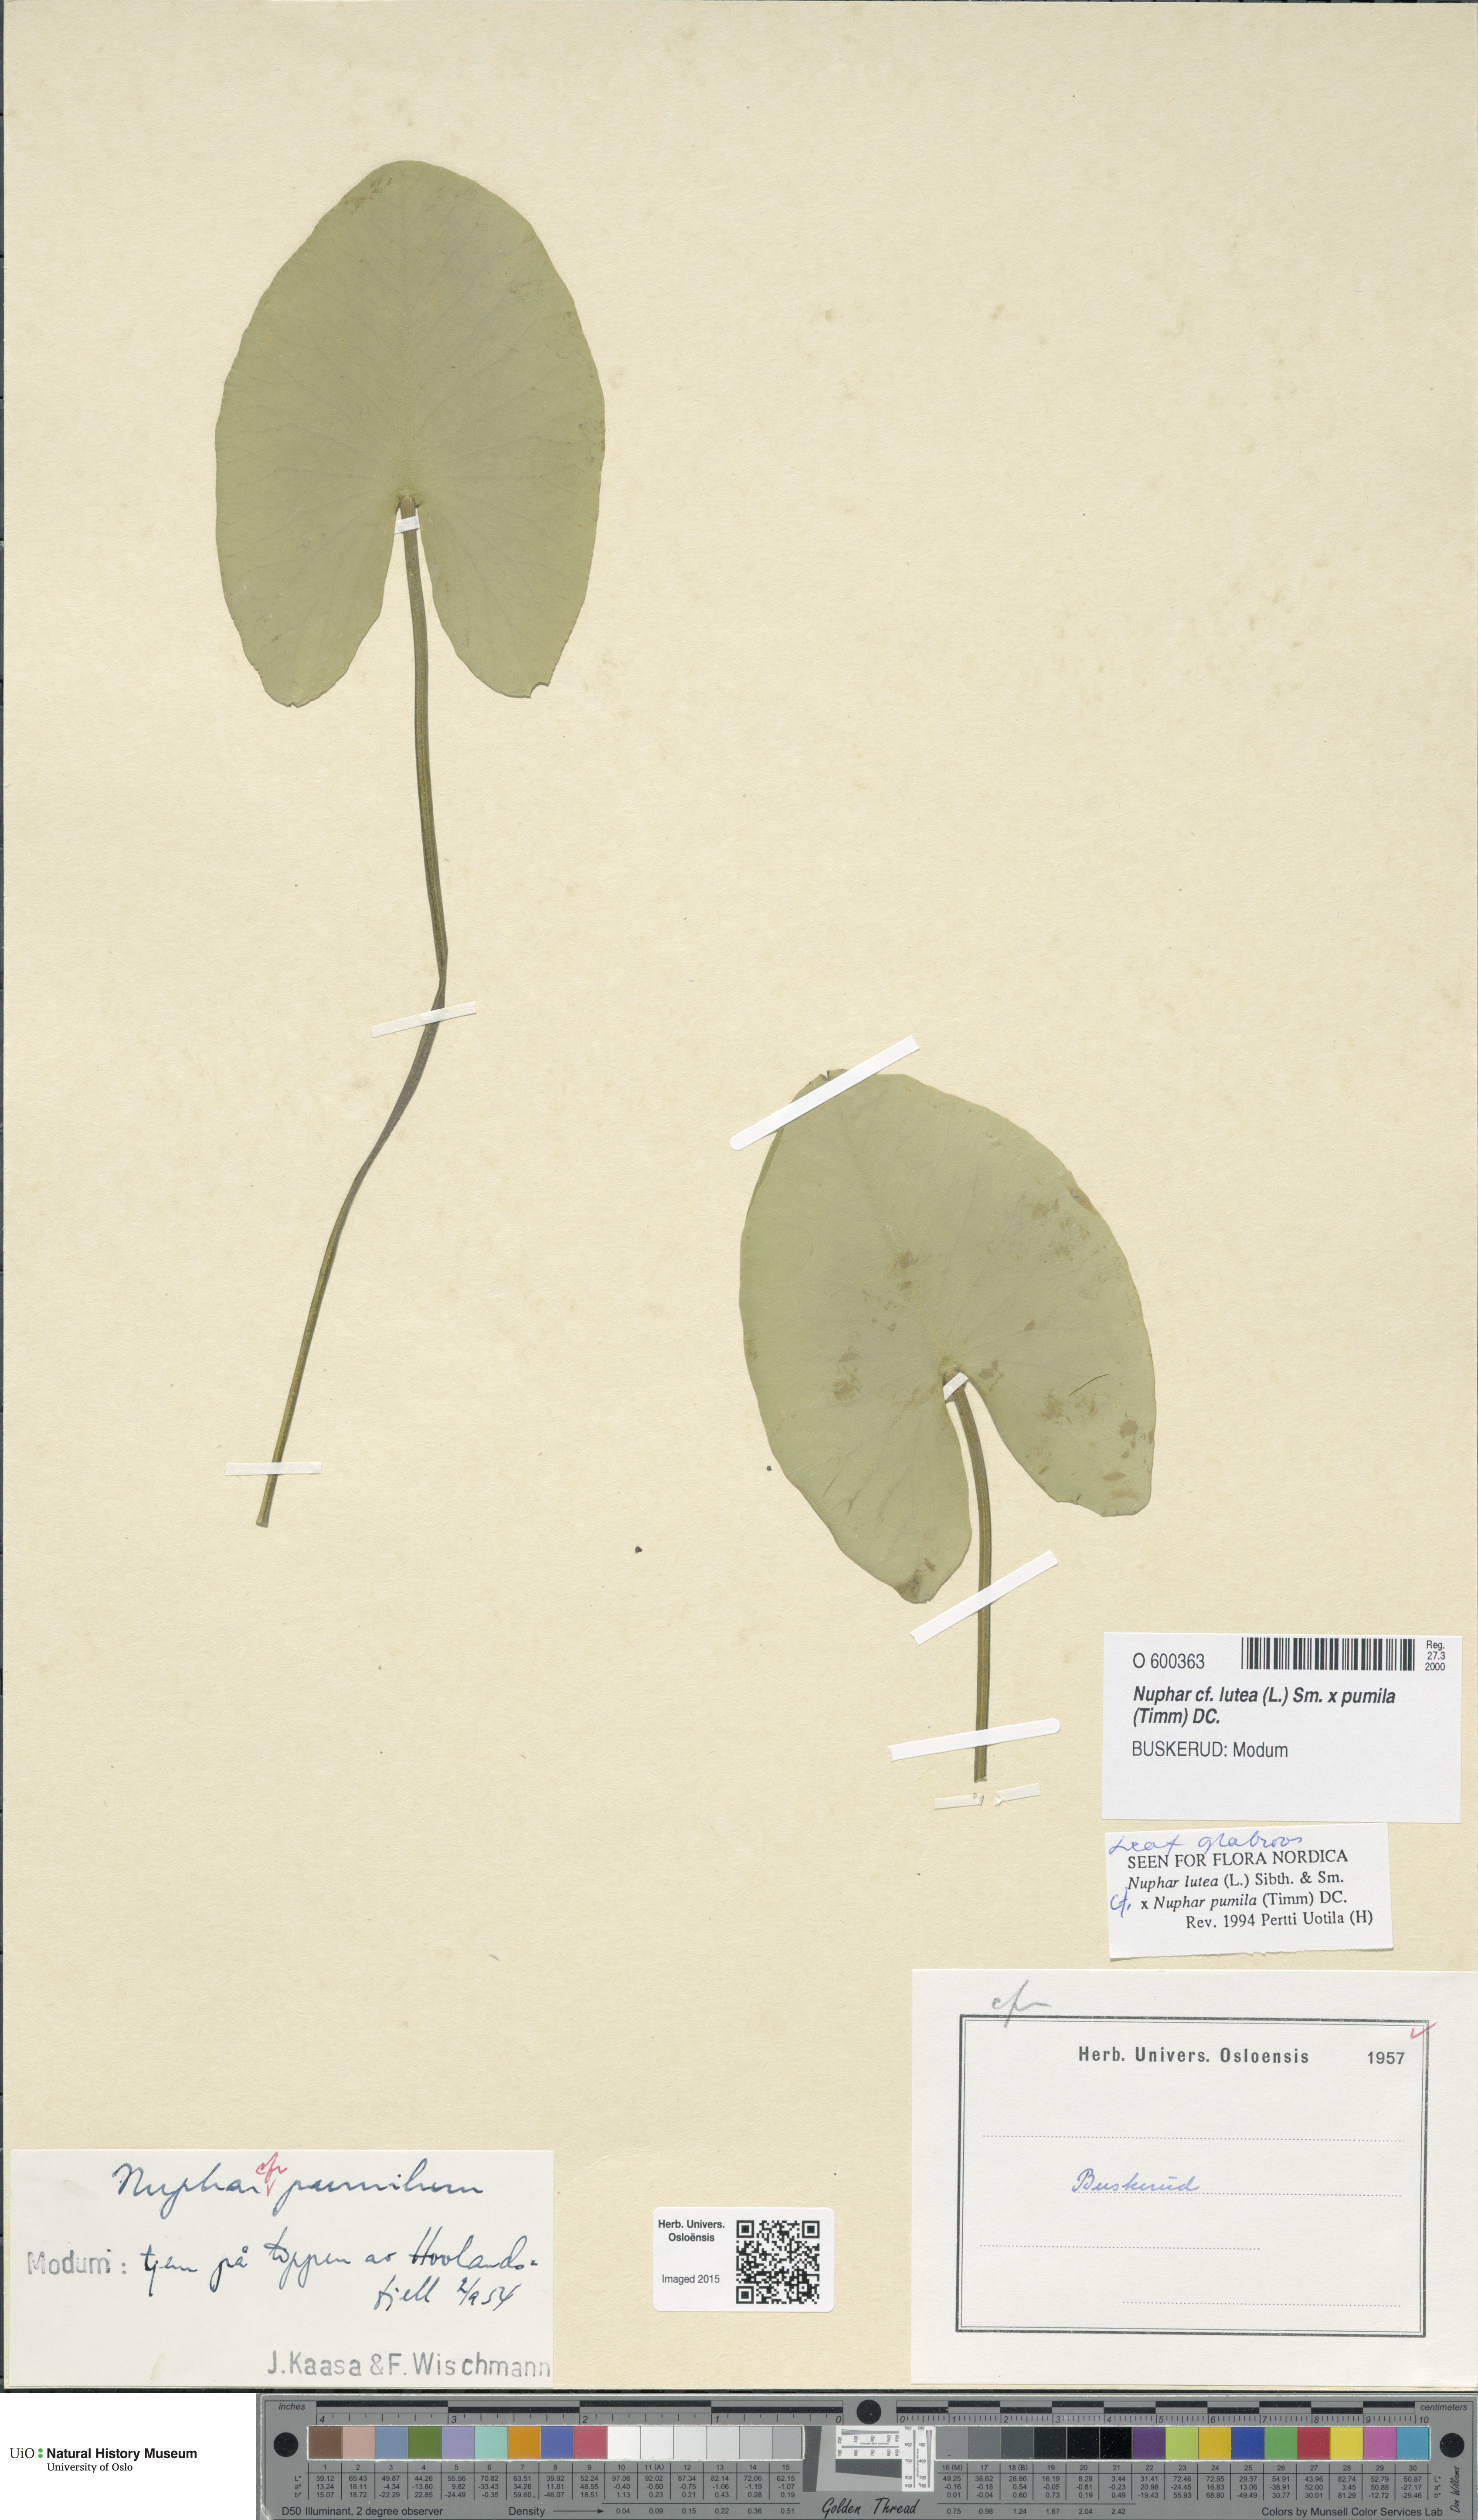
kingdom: Plantae
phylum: Tracheophyta
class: Magnoliopsida
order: Nymphaeales
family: Nymphaeaceae
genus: Nuphar
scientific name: Nuphar
